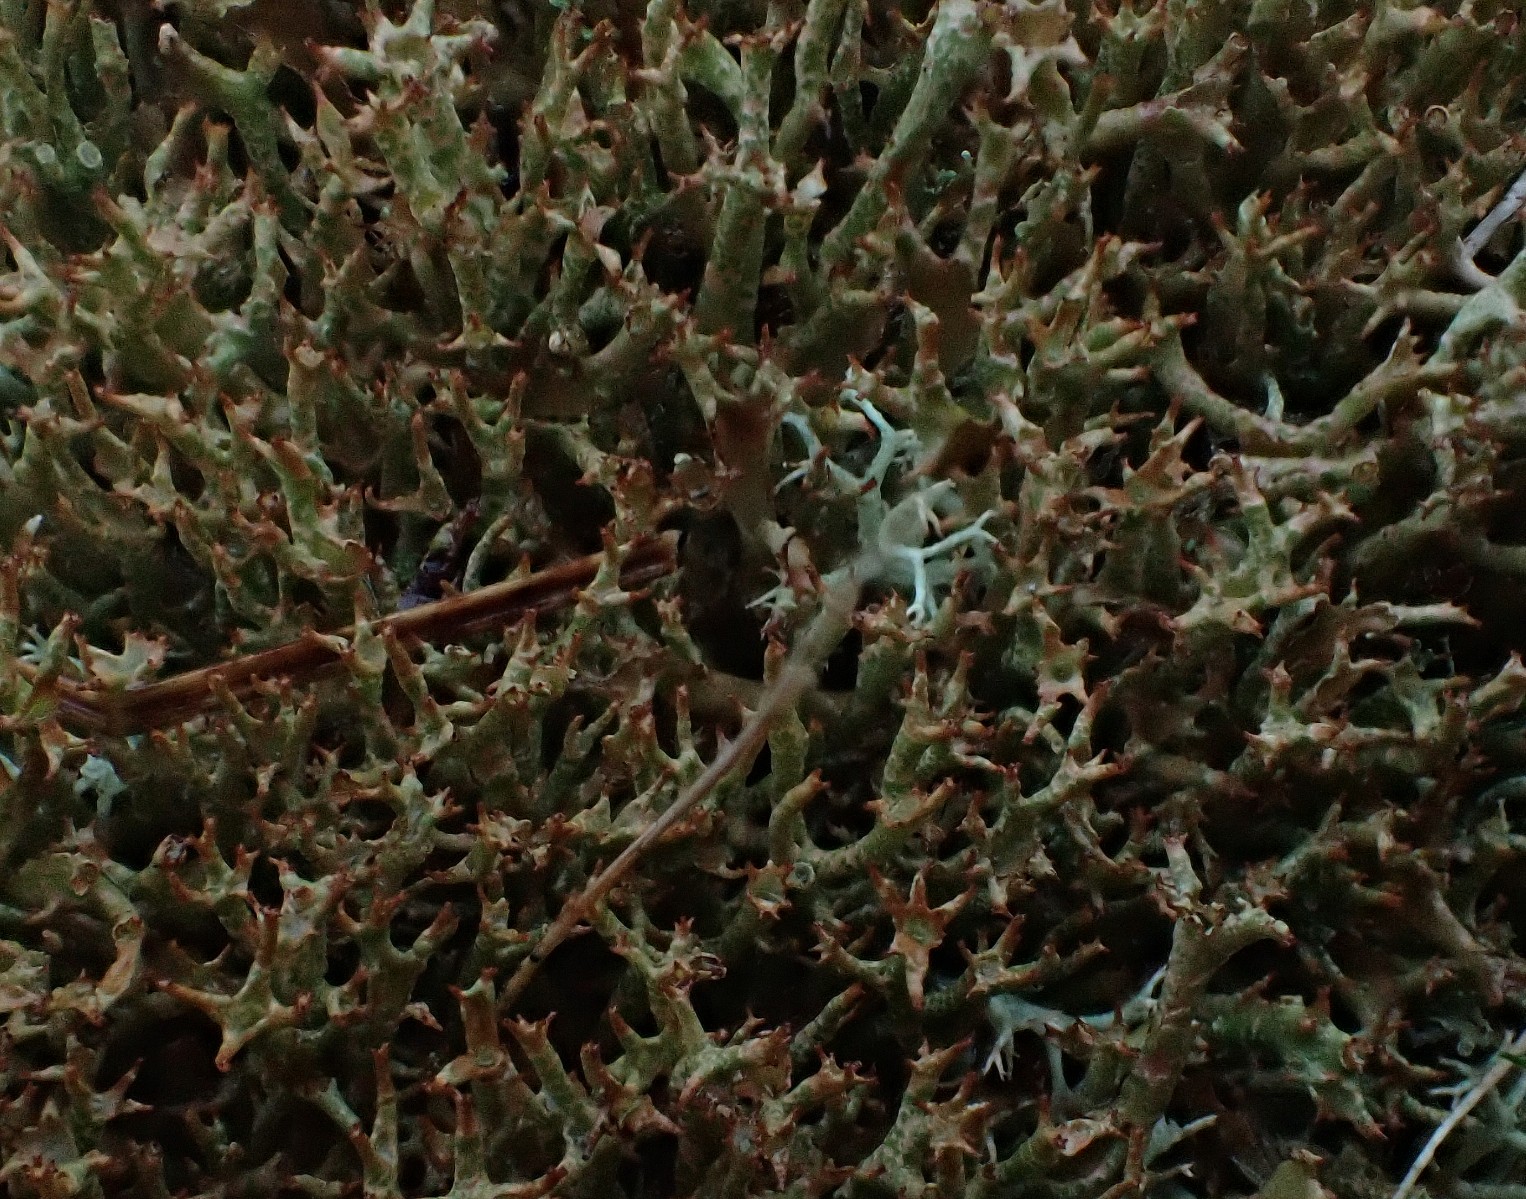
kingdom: Fungi
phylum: Ascomycota
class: Lecanoromycetes
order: Lecanorales
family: Cladoniaceae
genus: Cladonia
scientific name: Cladonia crispata
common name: takket bægerlav
